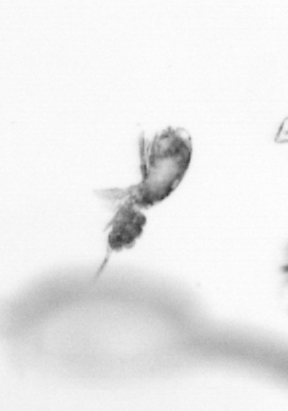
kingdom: Animalia
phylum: Arthropoda
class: Copepoda
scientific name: Copepoda
